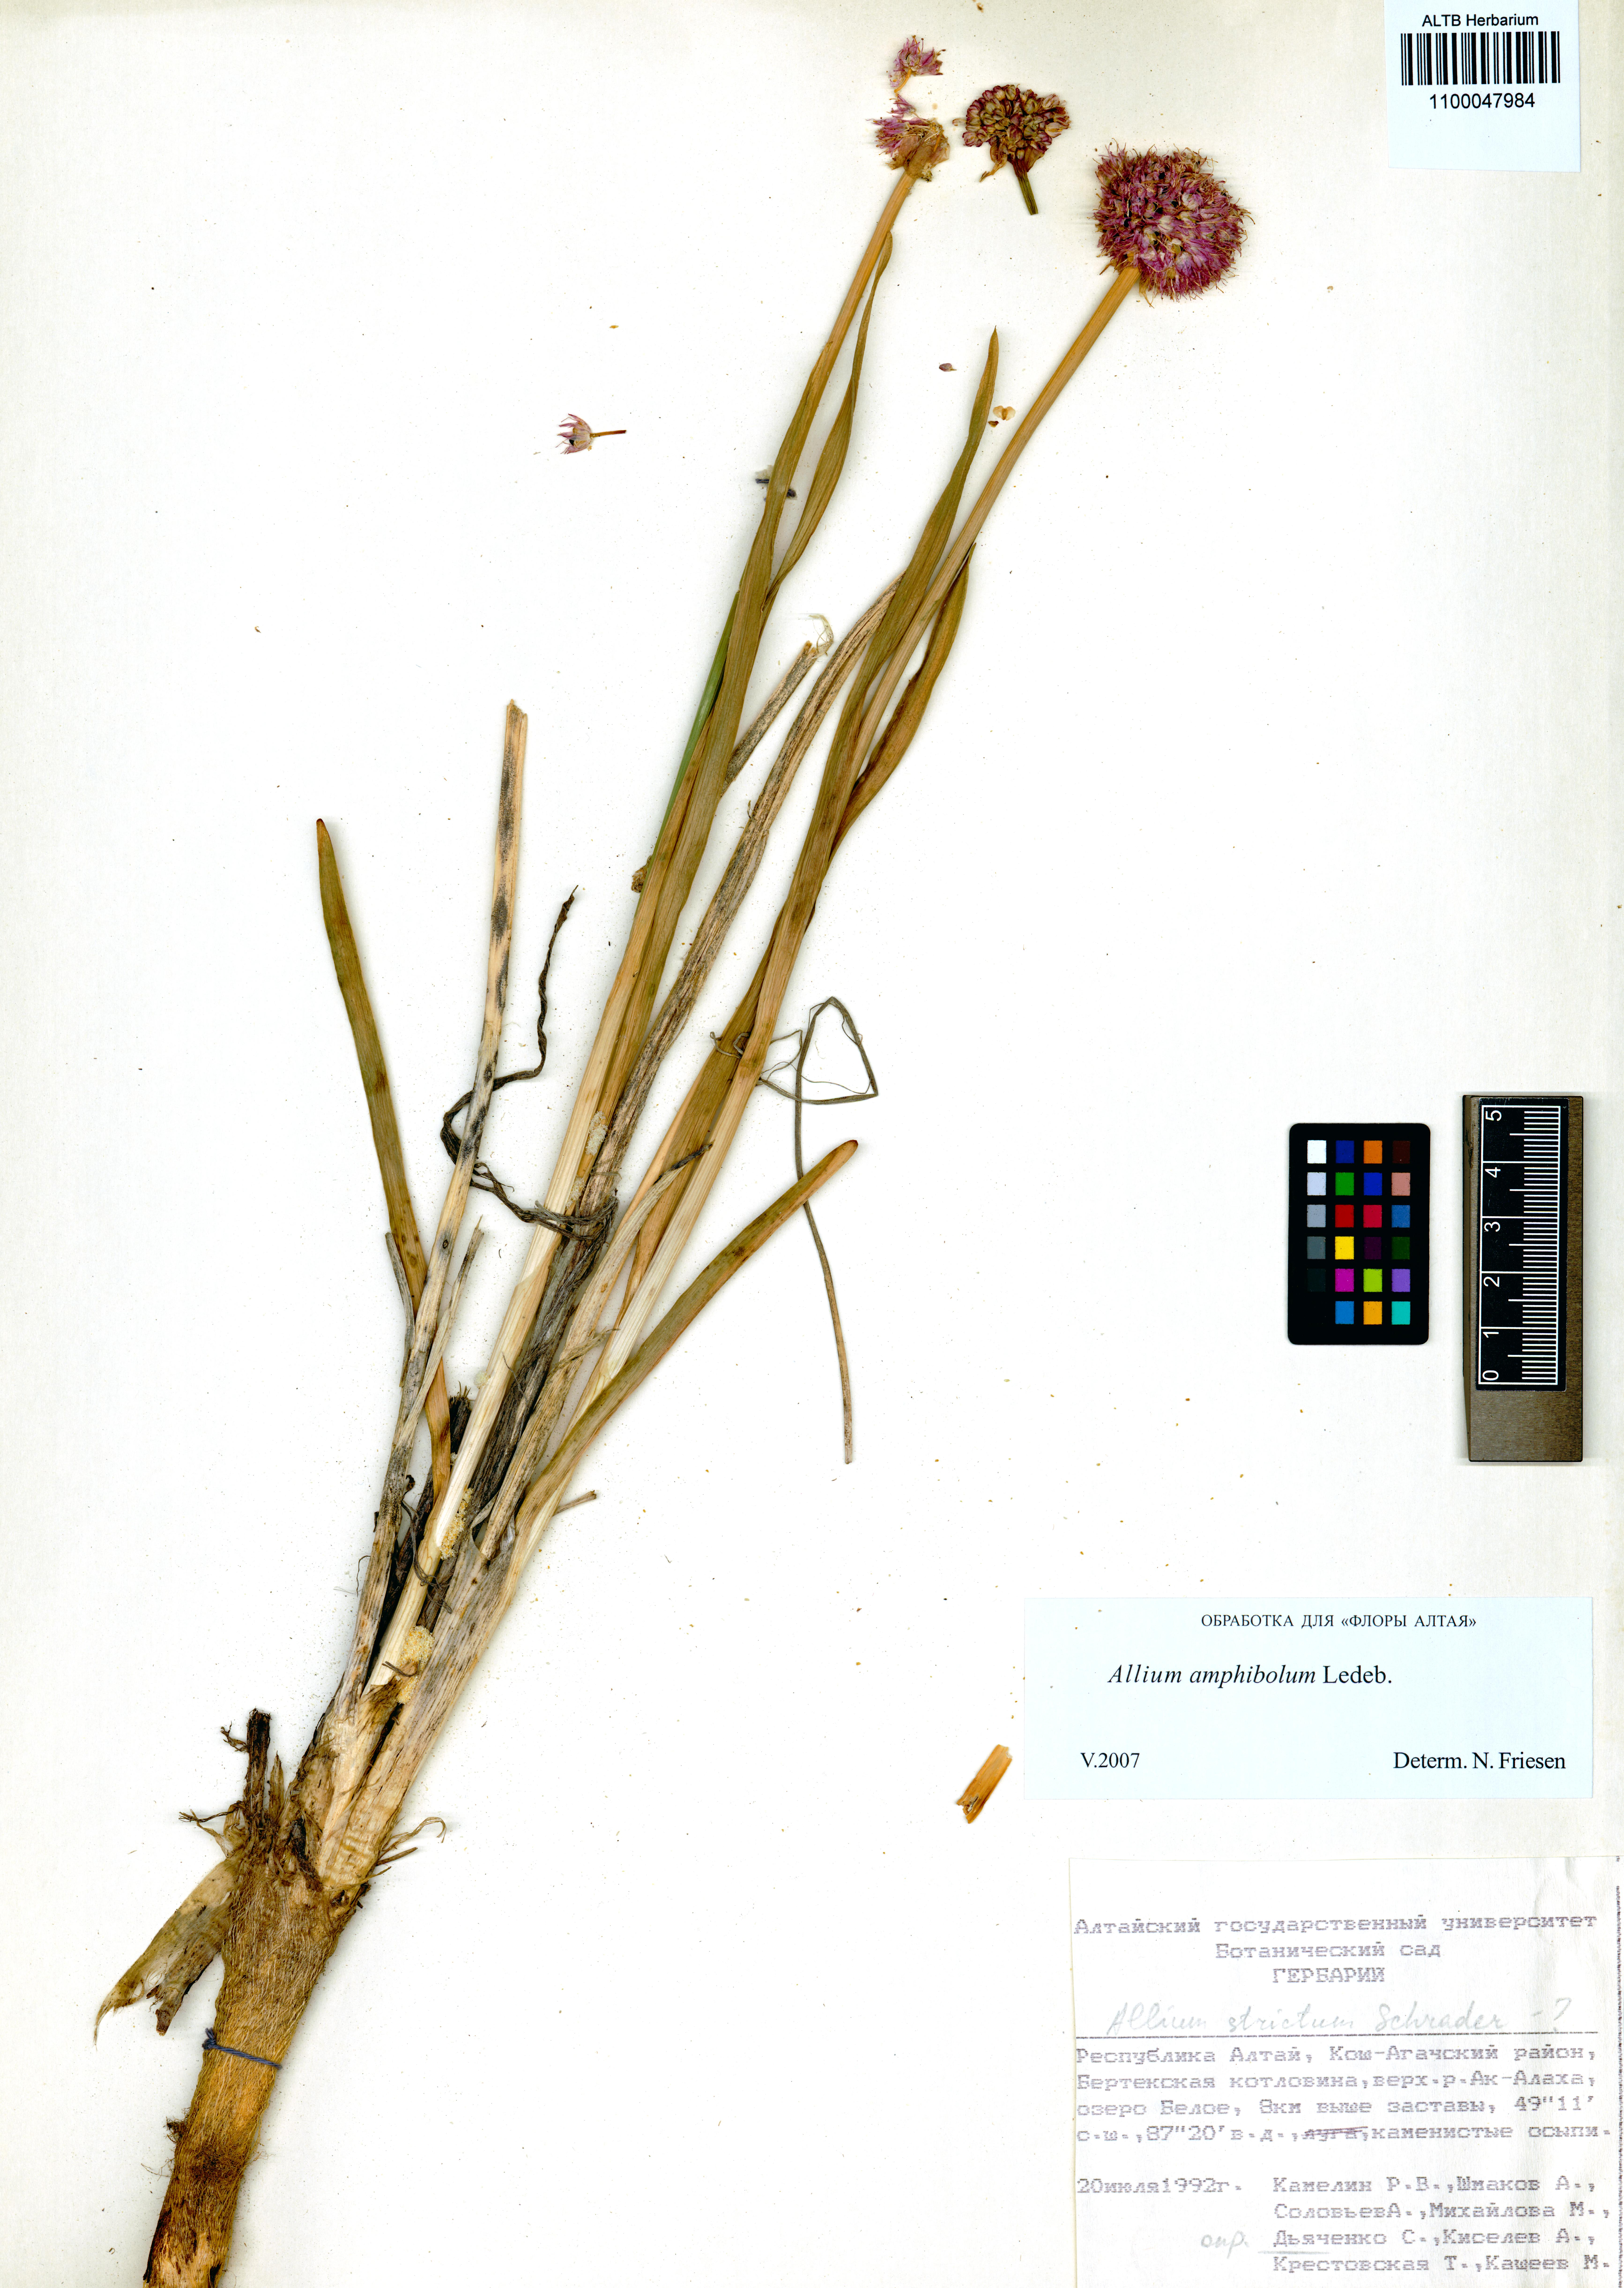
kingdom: Plantae
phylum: Tracheophyta
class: Liliopsida
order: Asparagales
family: Amaryllidaceae
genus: Allium
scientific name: Allium amphibolum
